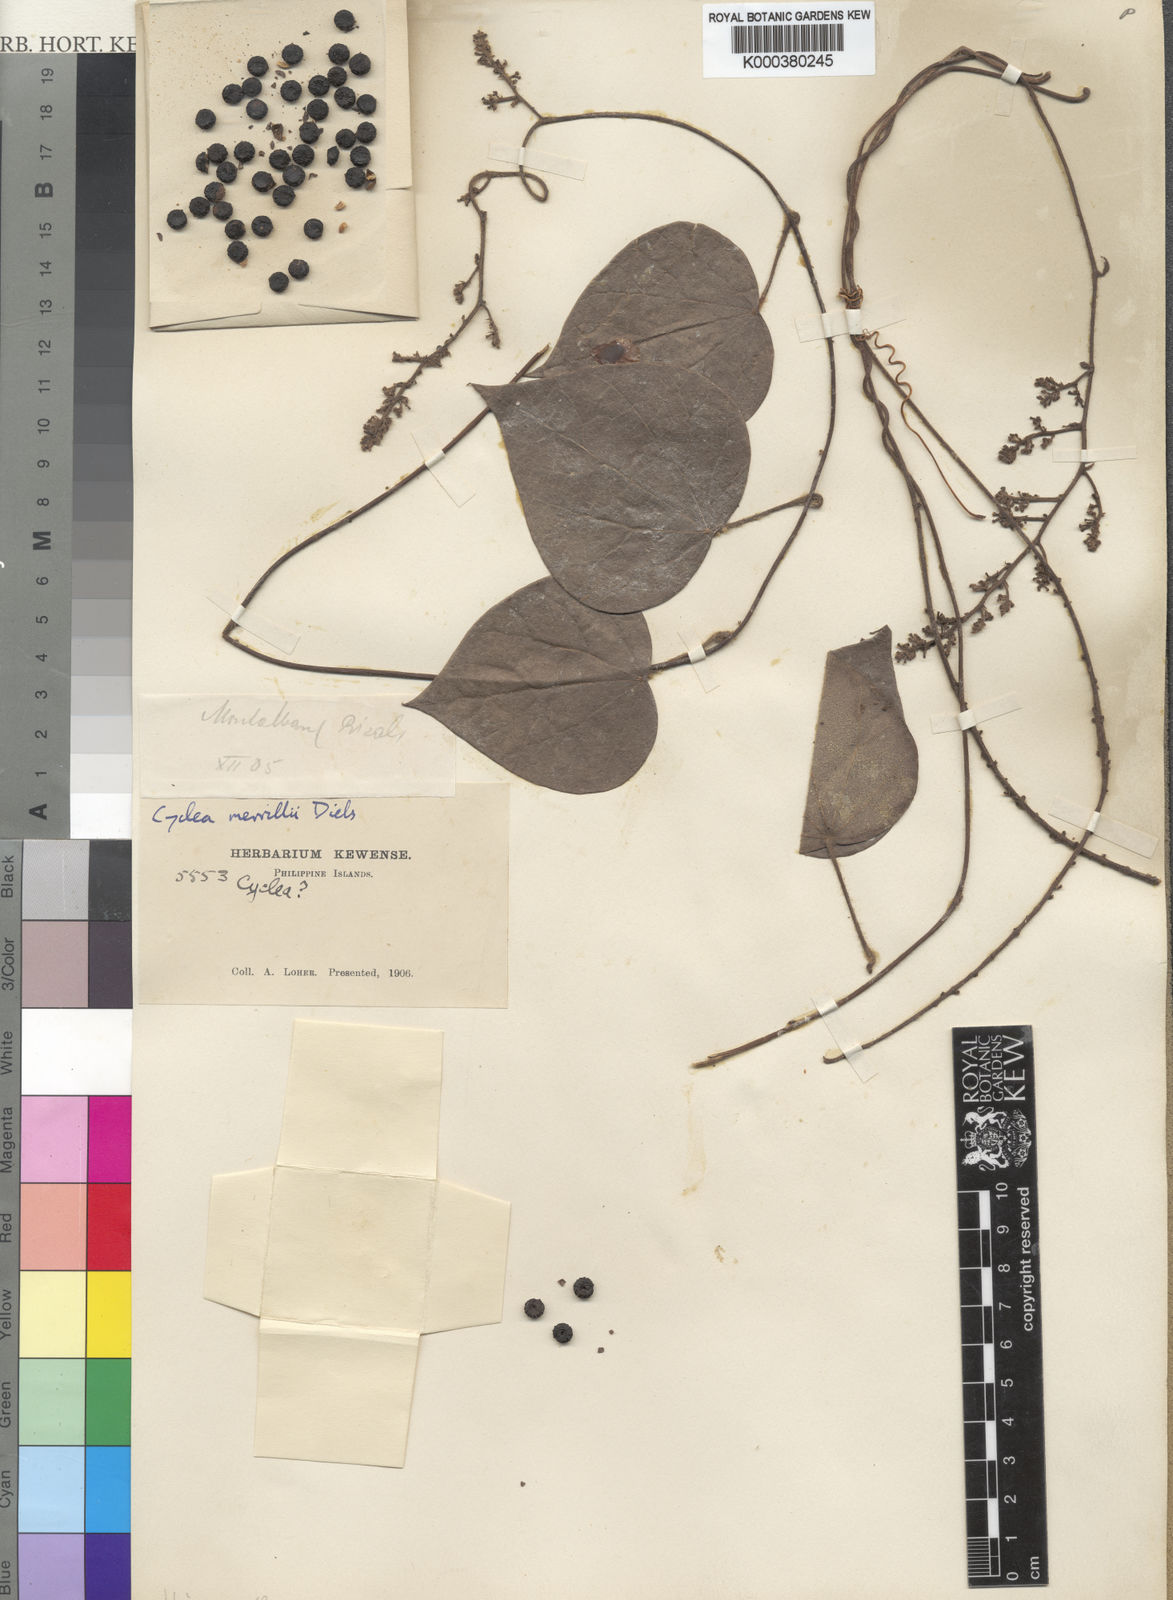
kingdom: Plantae
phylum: Tracheophyta
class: Magnoliopsida
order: Ranunculales
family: Menispermaceae
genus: Cyclea
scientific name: Cyclea merrillii
